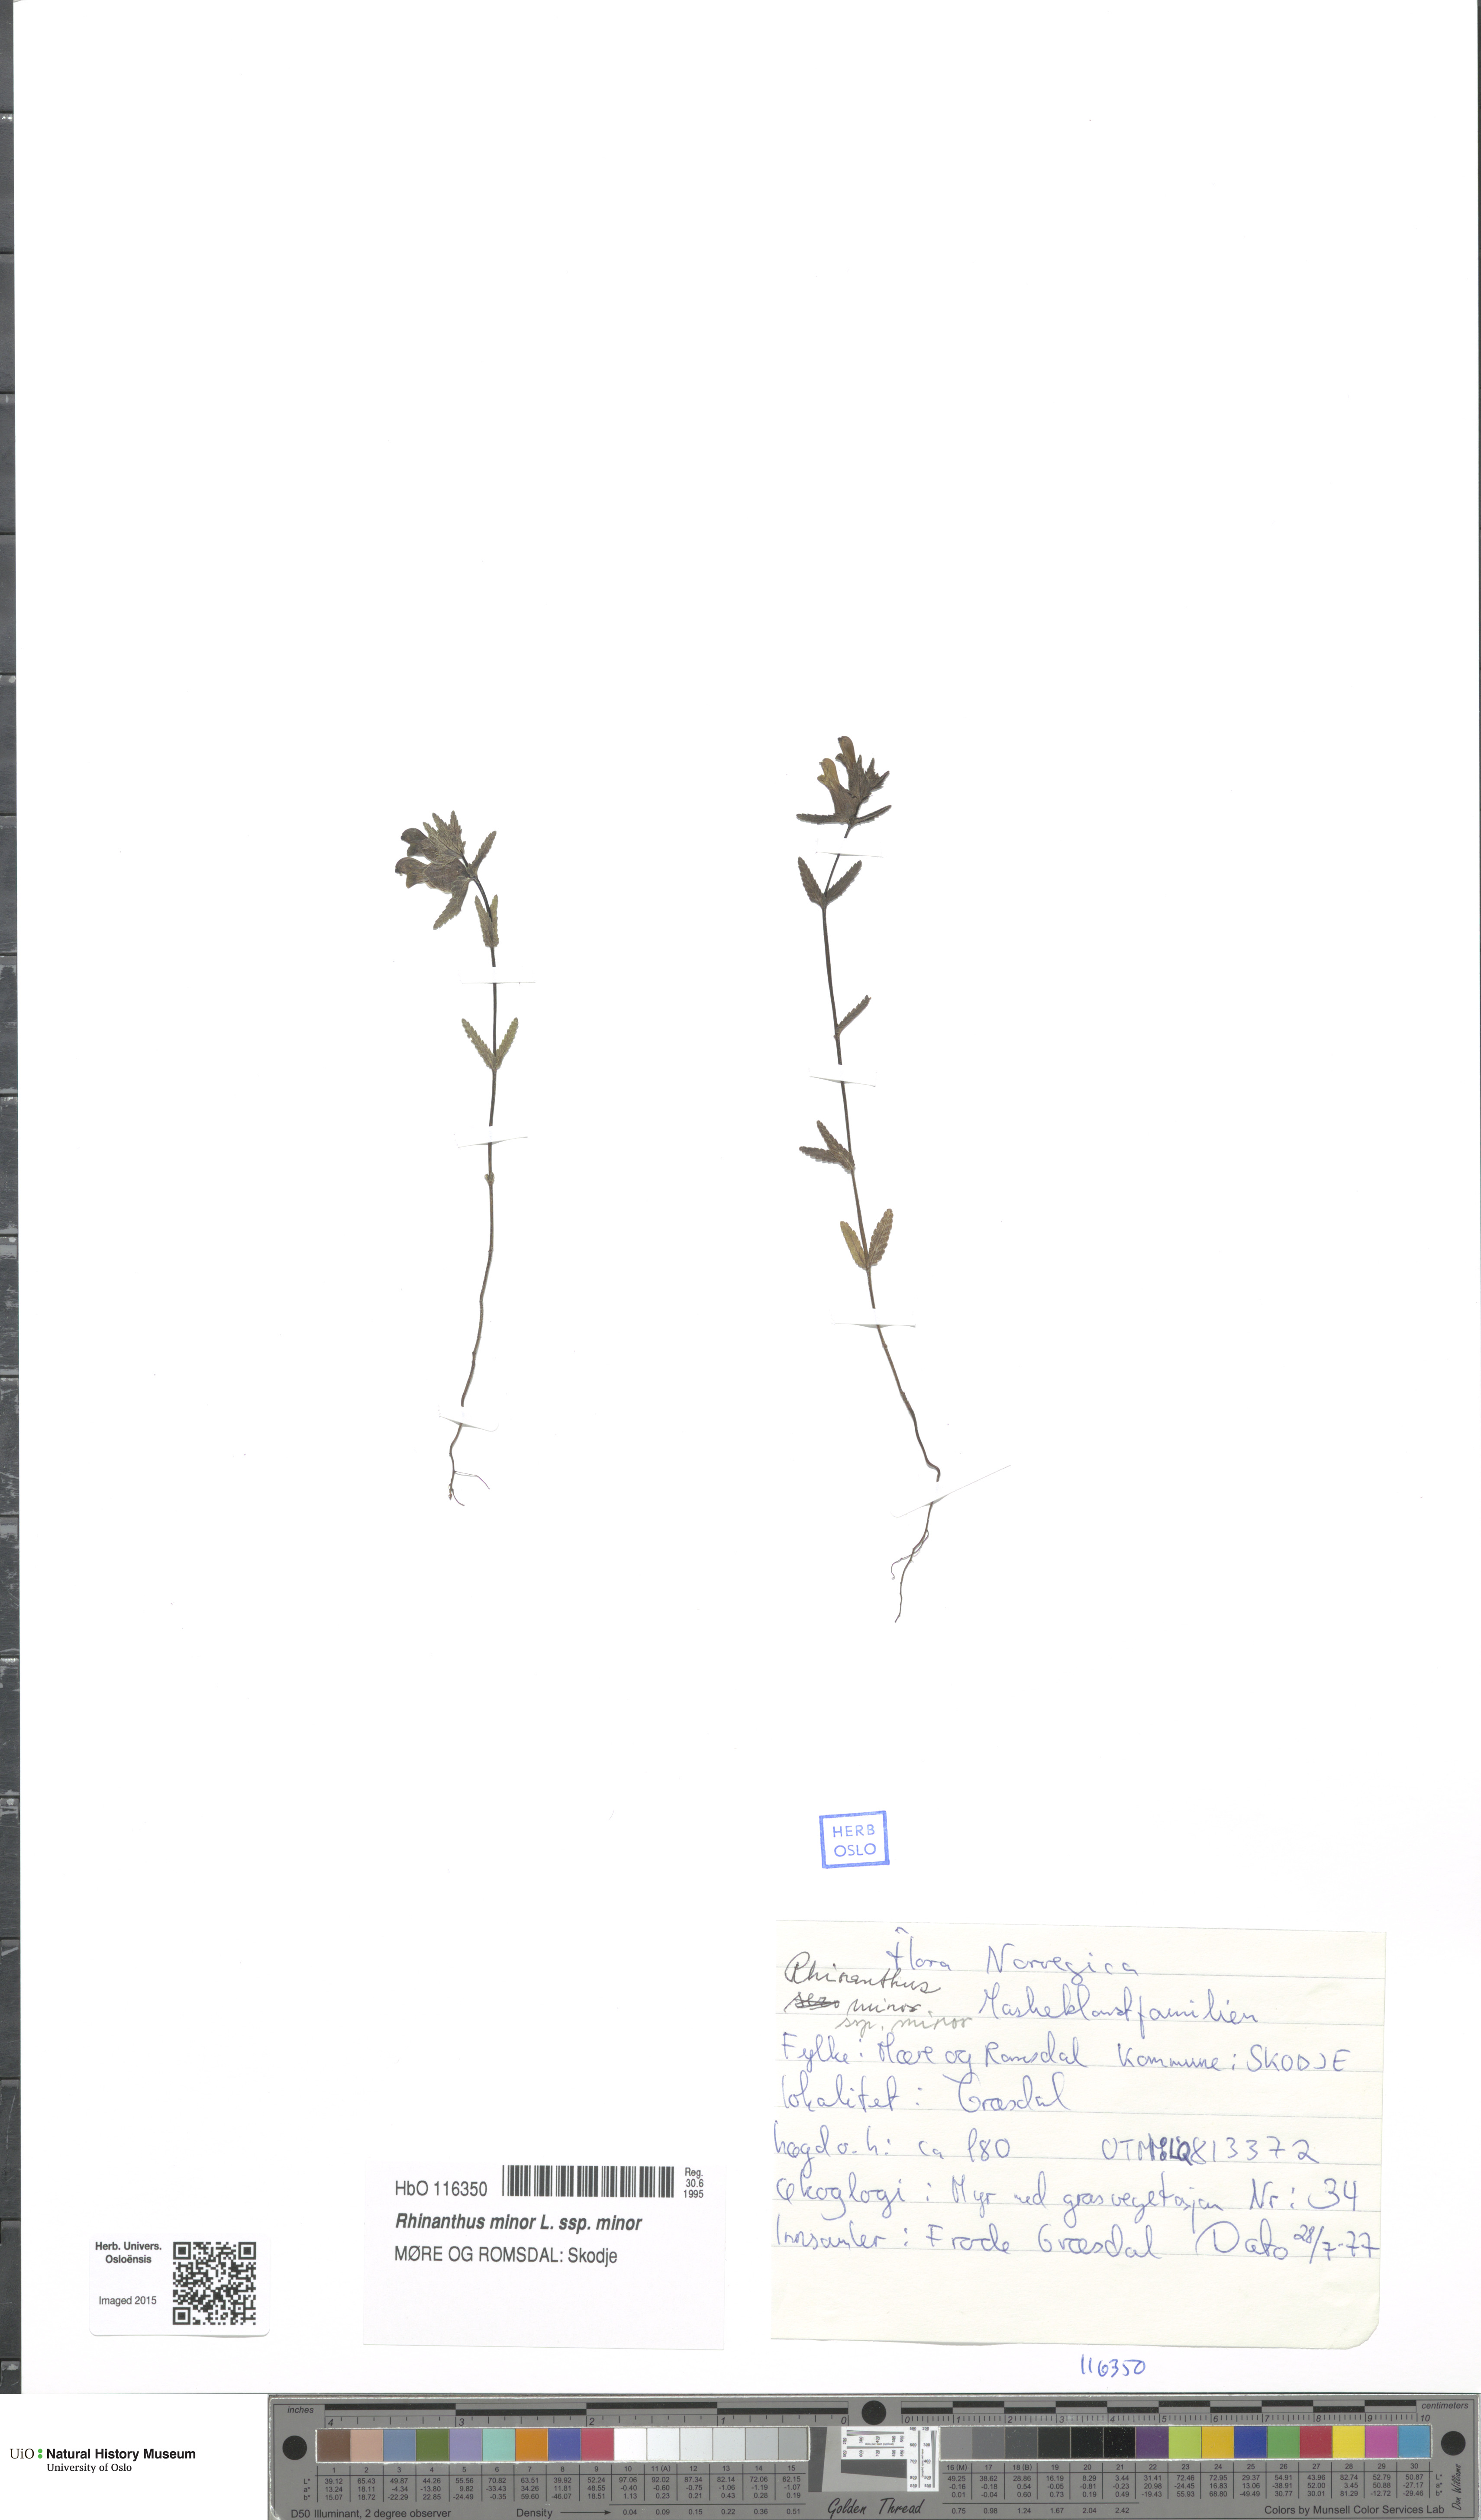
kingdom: Plantae
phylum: Tracheophyta
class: Magnoliopsida
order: Lamiales
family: Orobanchaceae
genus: Rhinanthus
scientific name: Rhinanthus minor
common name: Yellow-rattle
